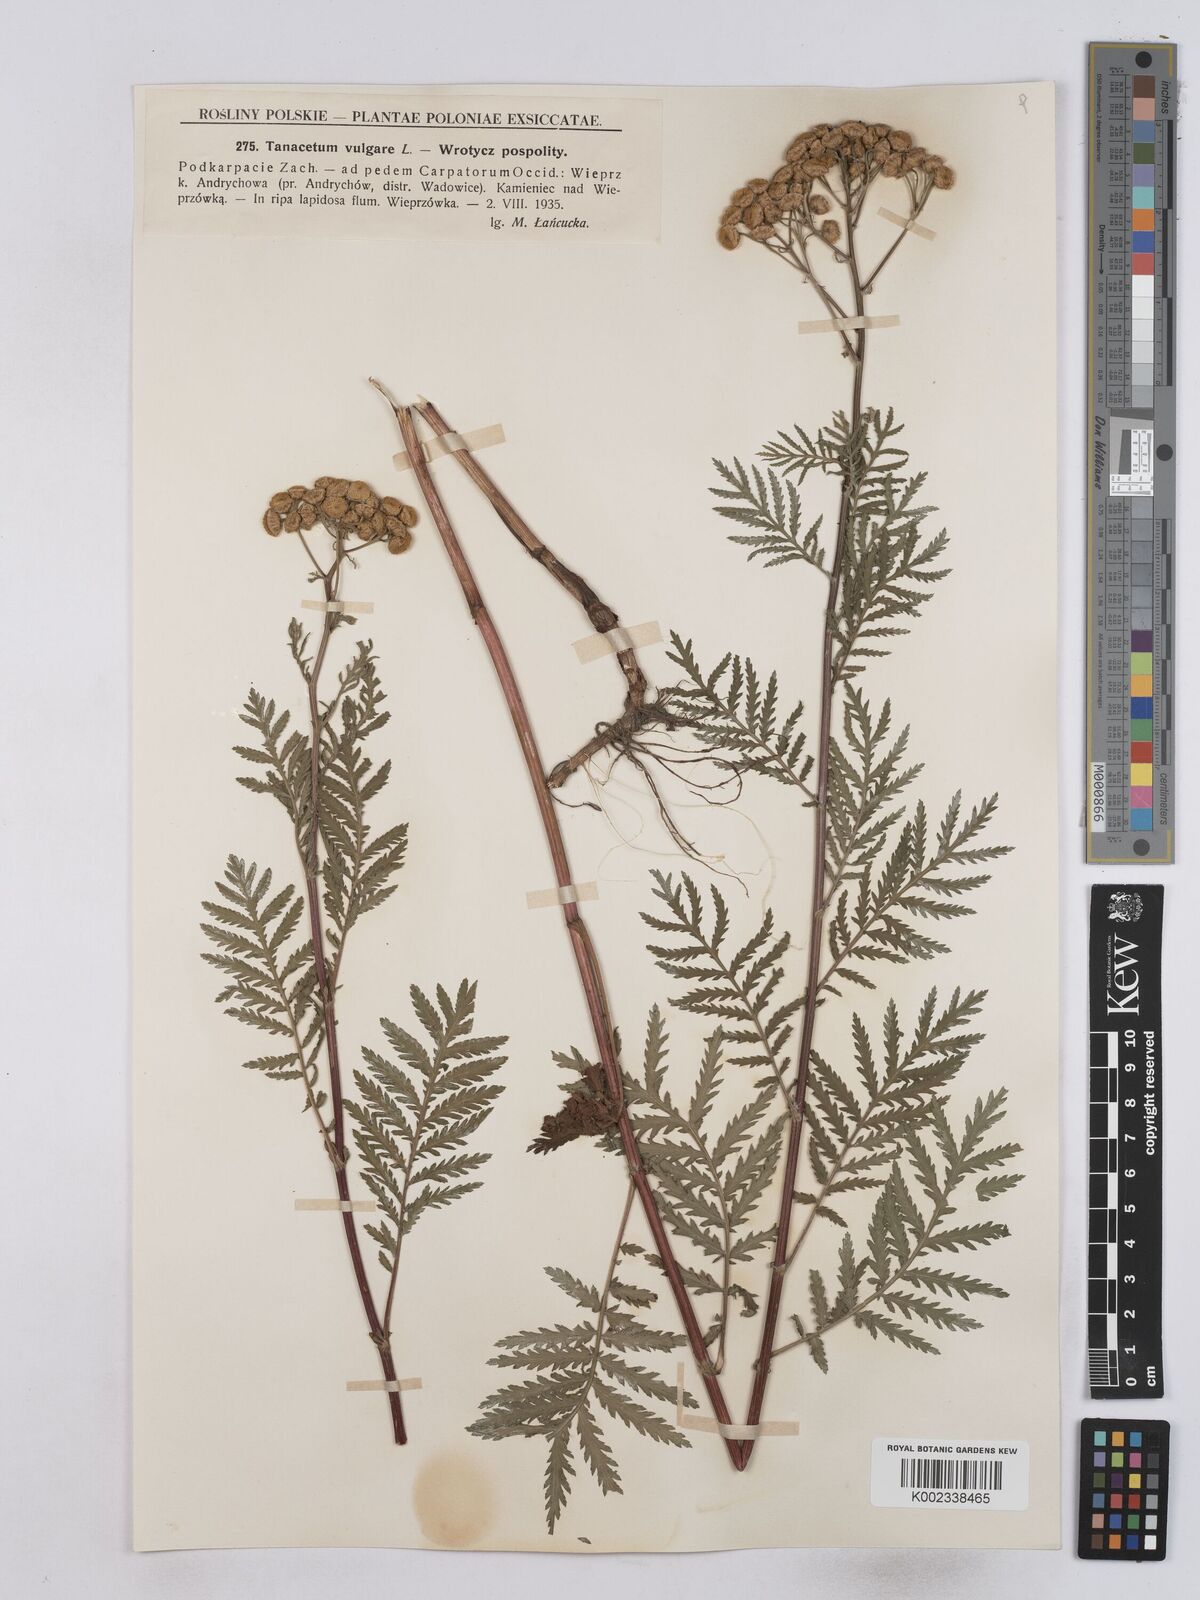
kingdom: Plantae
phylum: Tracheophyta
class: Magnoliopsida
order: Asterales
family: Asteraceae
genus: Tanacetum
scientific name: Tanacetum vulgare
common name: Common tansy
